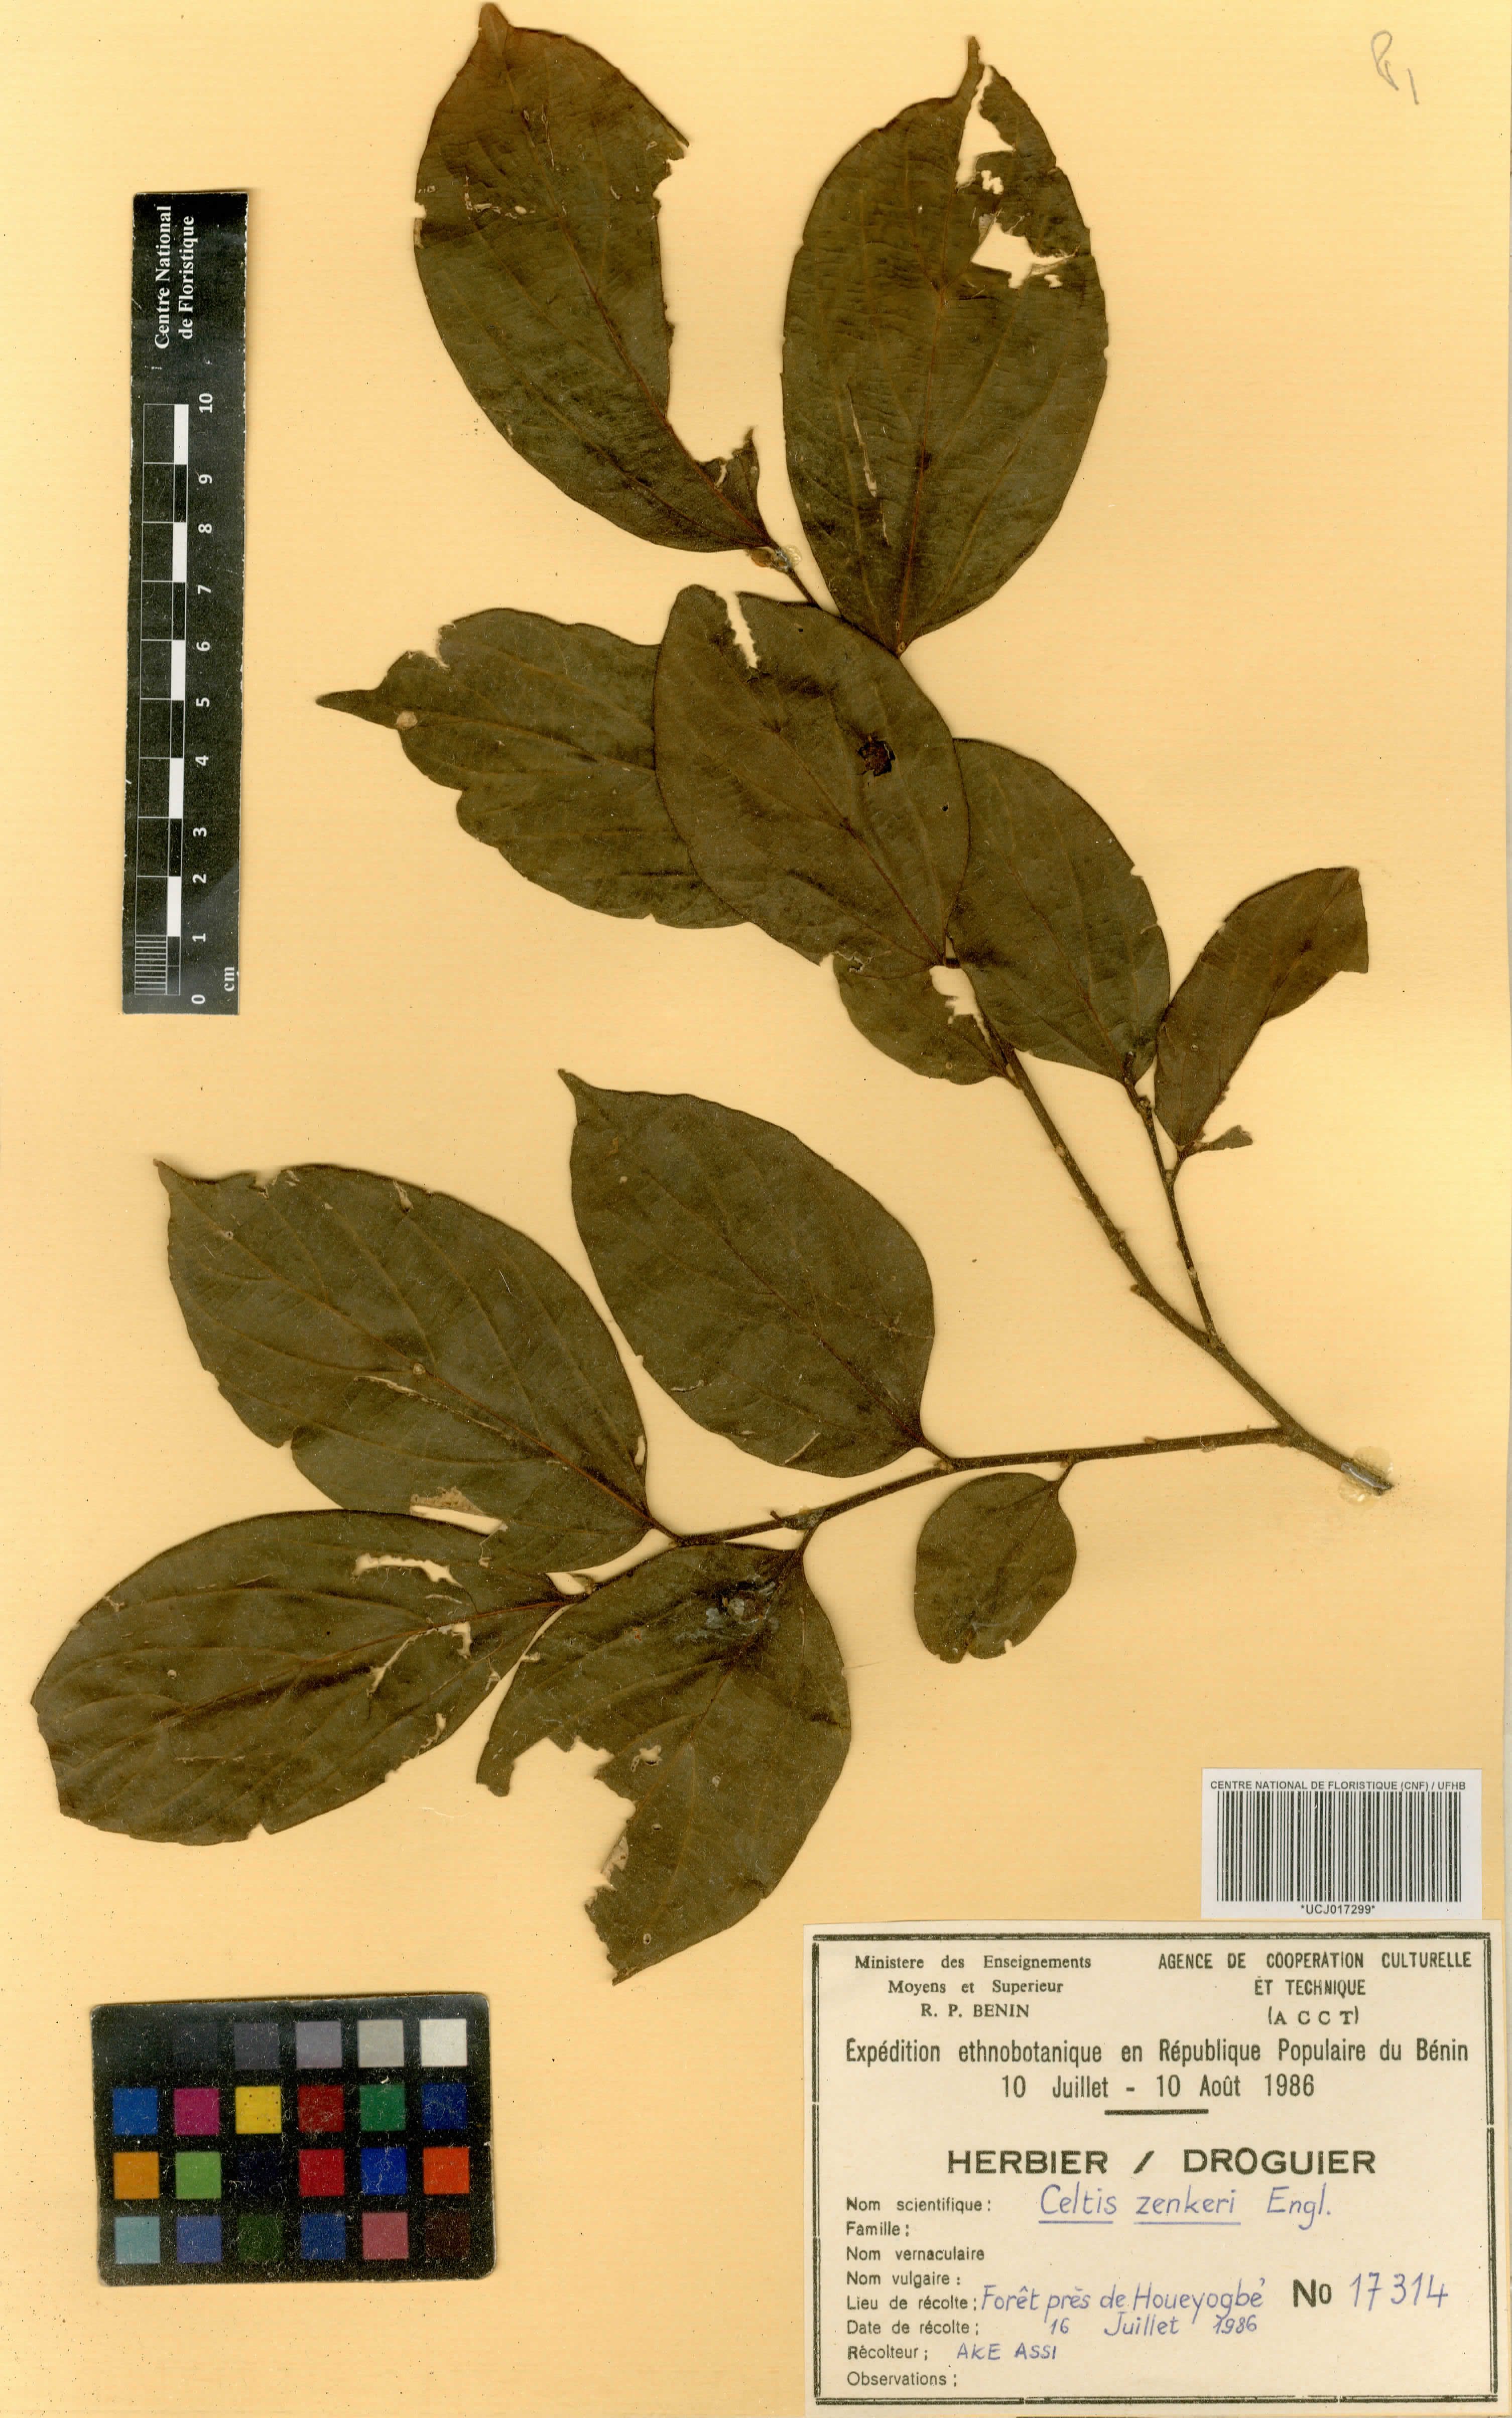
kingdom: Plantae
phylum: Tracheophyta
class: Magnoliopsida
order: Rosales
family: Cannabaceae
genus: Celtis
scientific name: Celtis zenkeri
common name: African celtis
